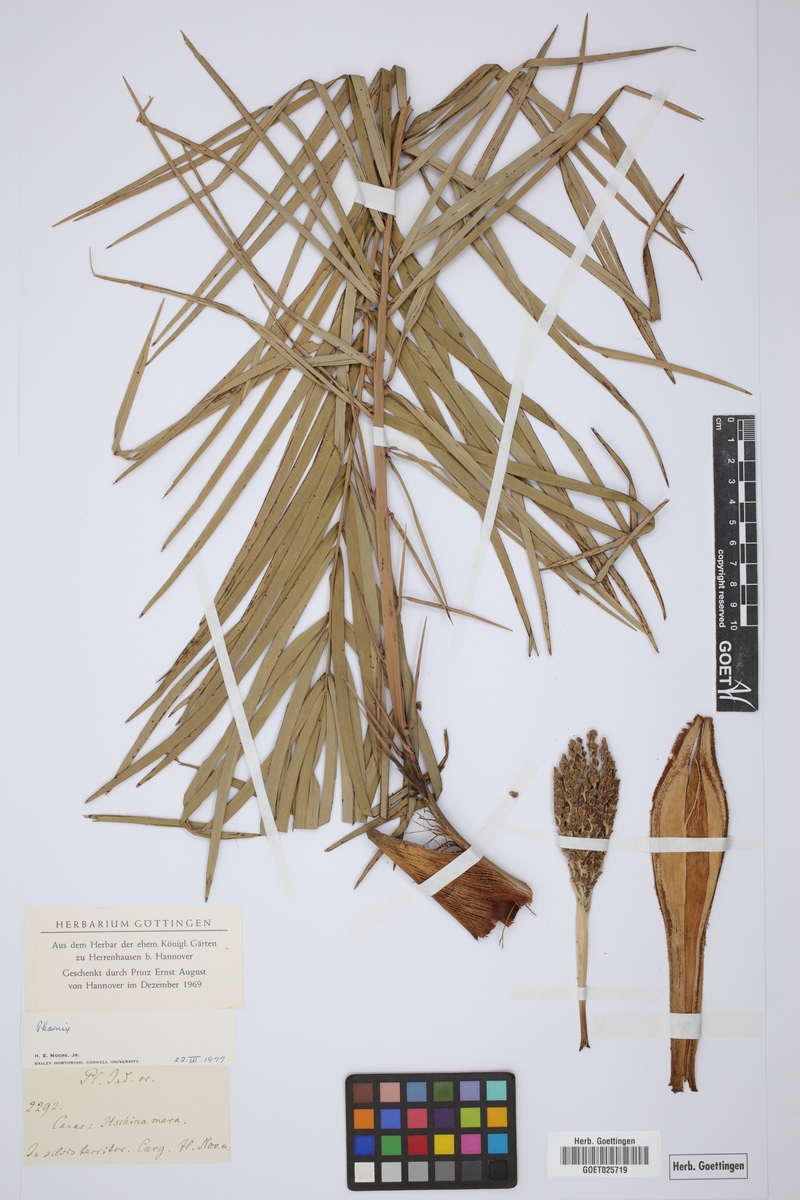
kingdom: Plantae
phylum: Tracheophyta
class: Liliopsida
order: Arecales
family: Arecaceae
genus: Phoenix
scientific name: Phoenix
